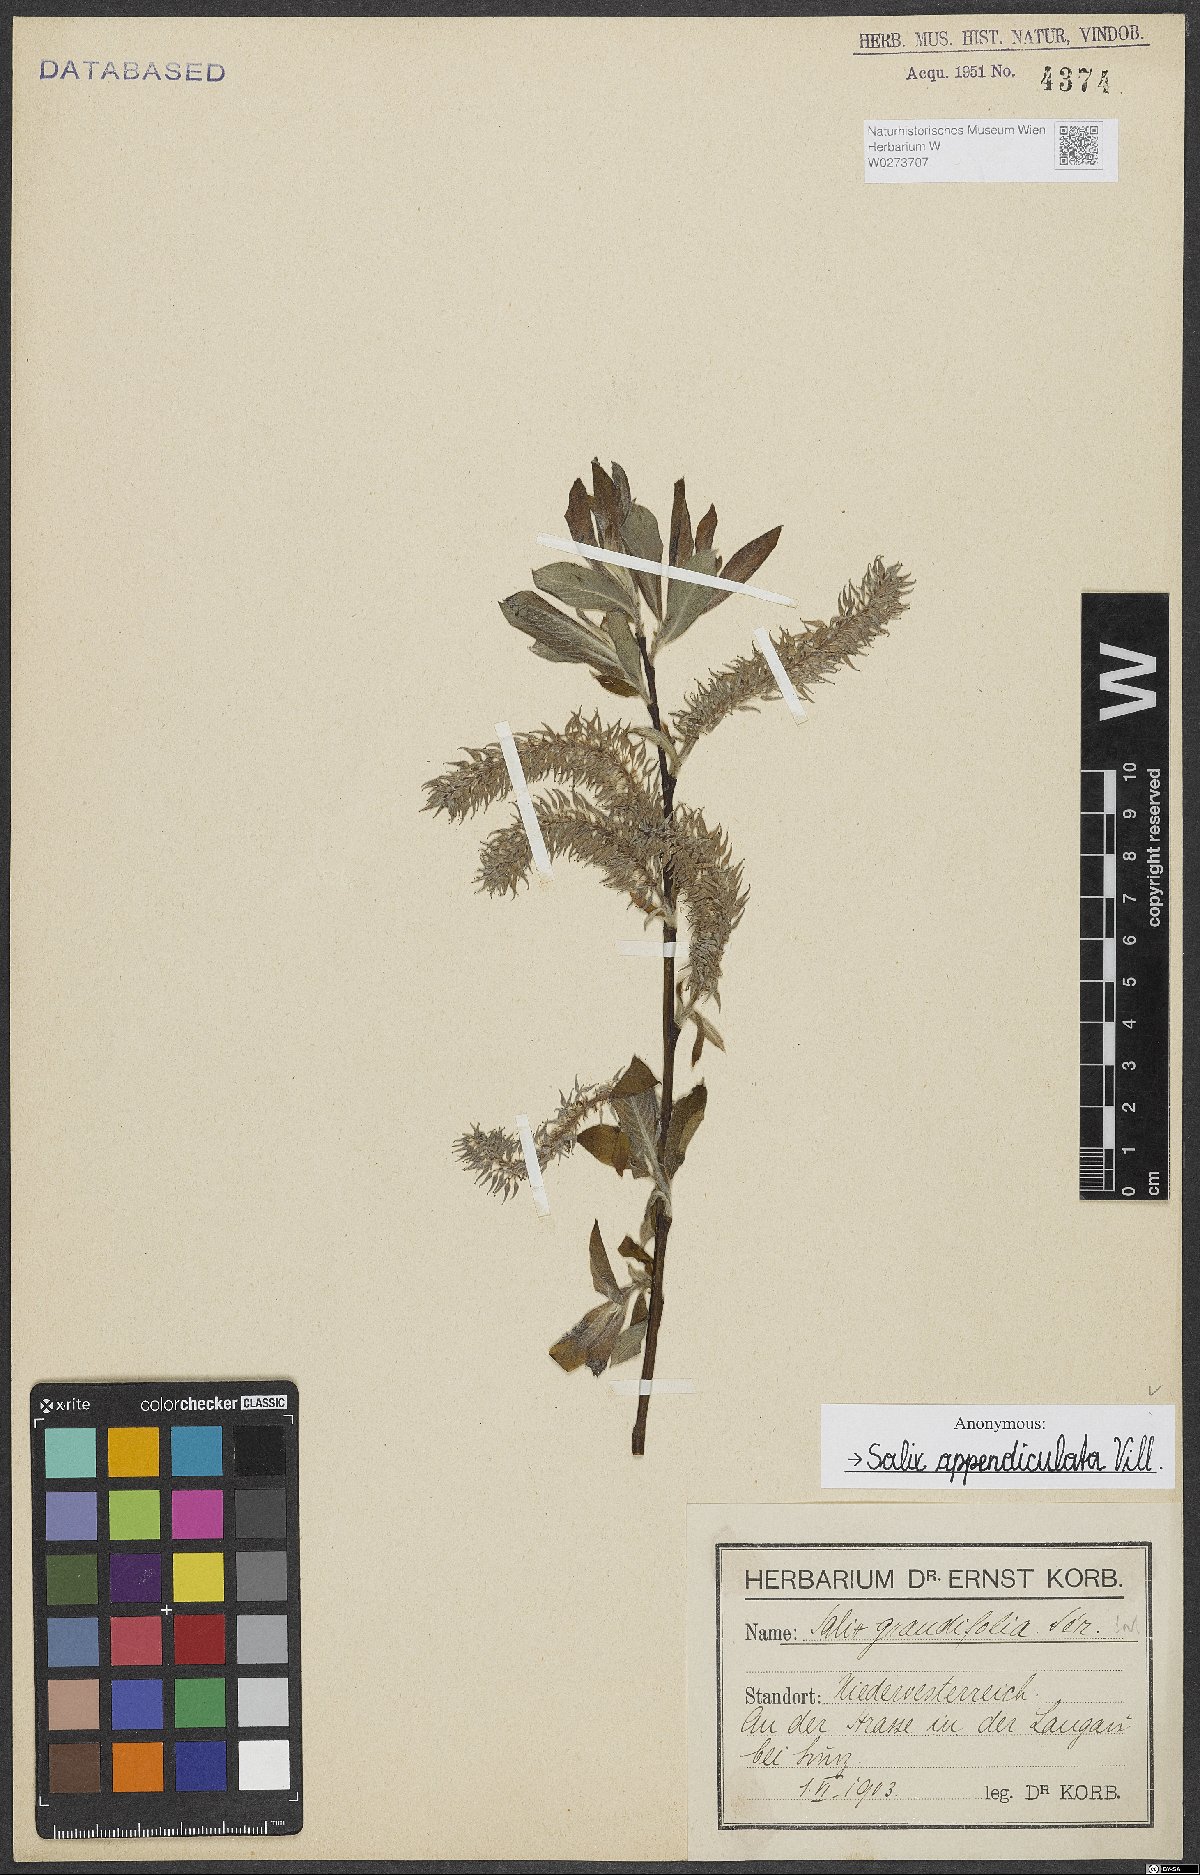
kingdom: Plantae
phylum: Tracheophyta
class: Magnoliopsida
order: Malpighiales
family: Salicaceae
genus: Salix
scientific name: Salix appendiculata
